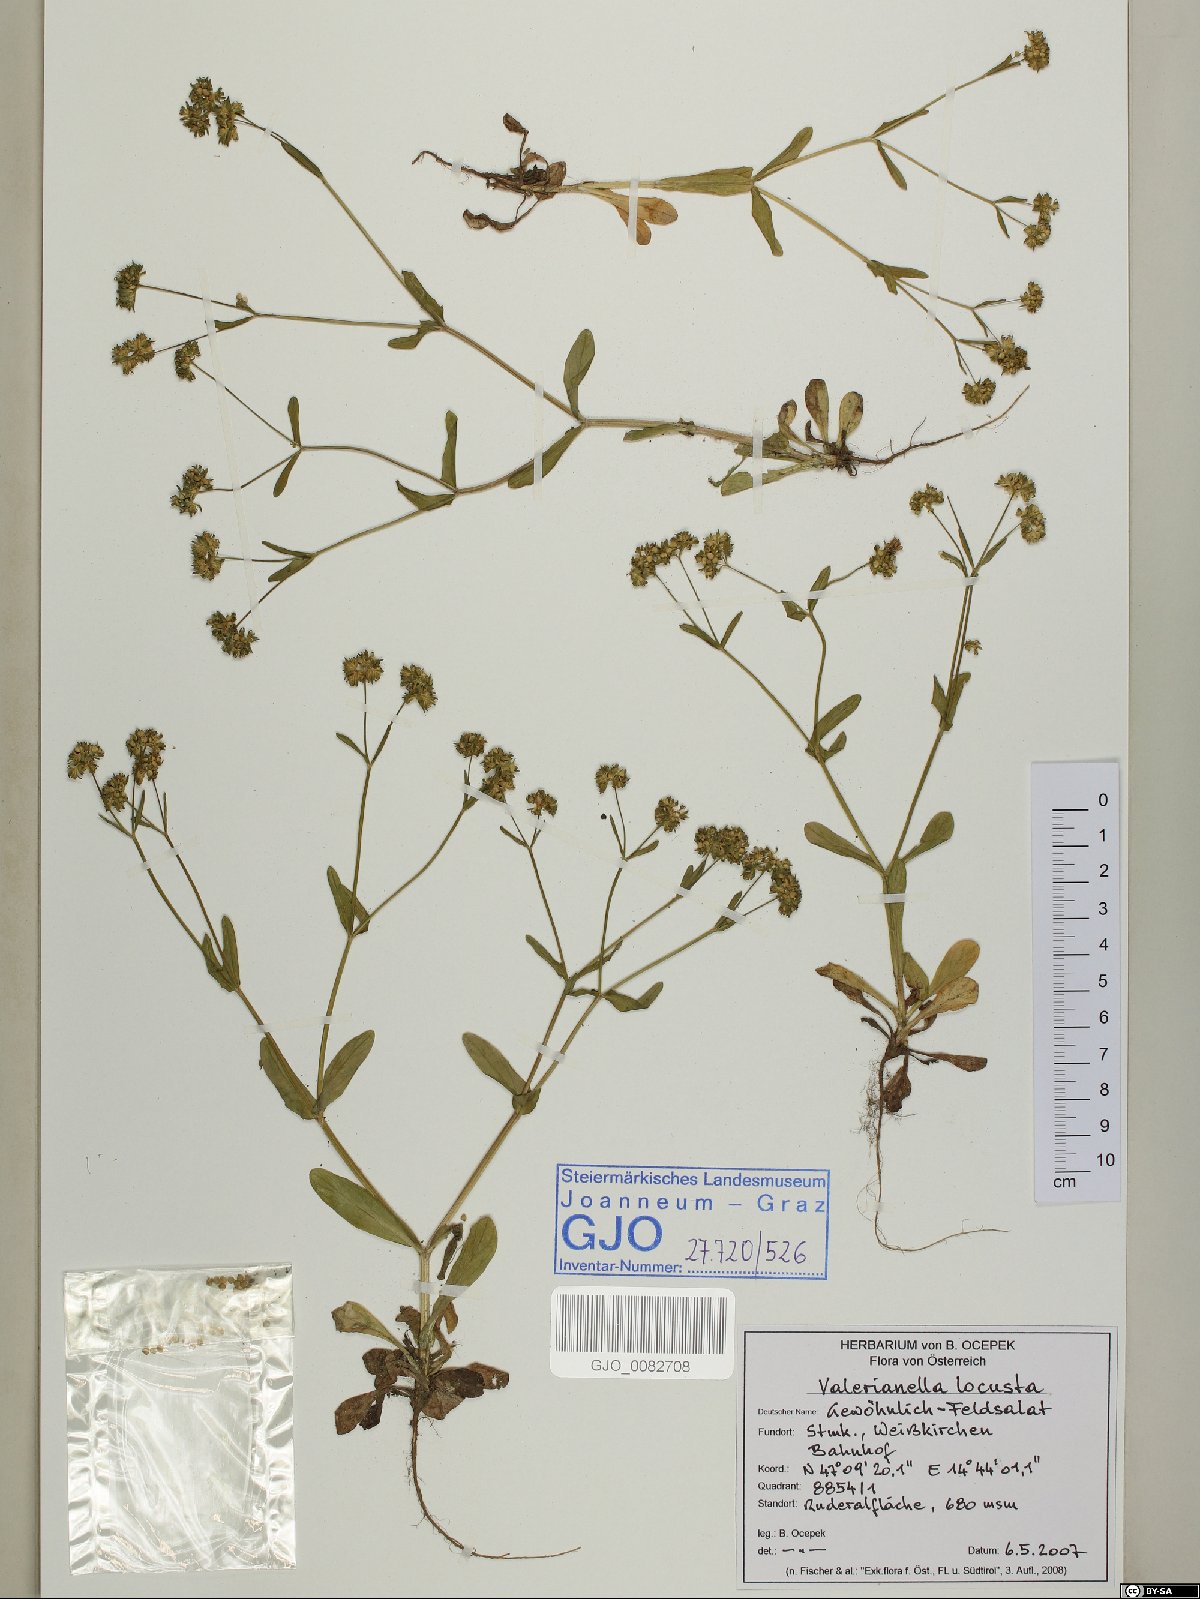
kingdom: Plantae
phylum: Tracheophyta
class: Magnoliopsida
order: Dipsacales
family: Caprifoliaceae
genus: Valerianella
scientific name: Valerianella locusta
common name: Common cornsalad
